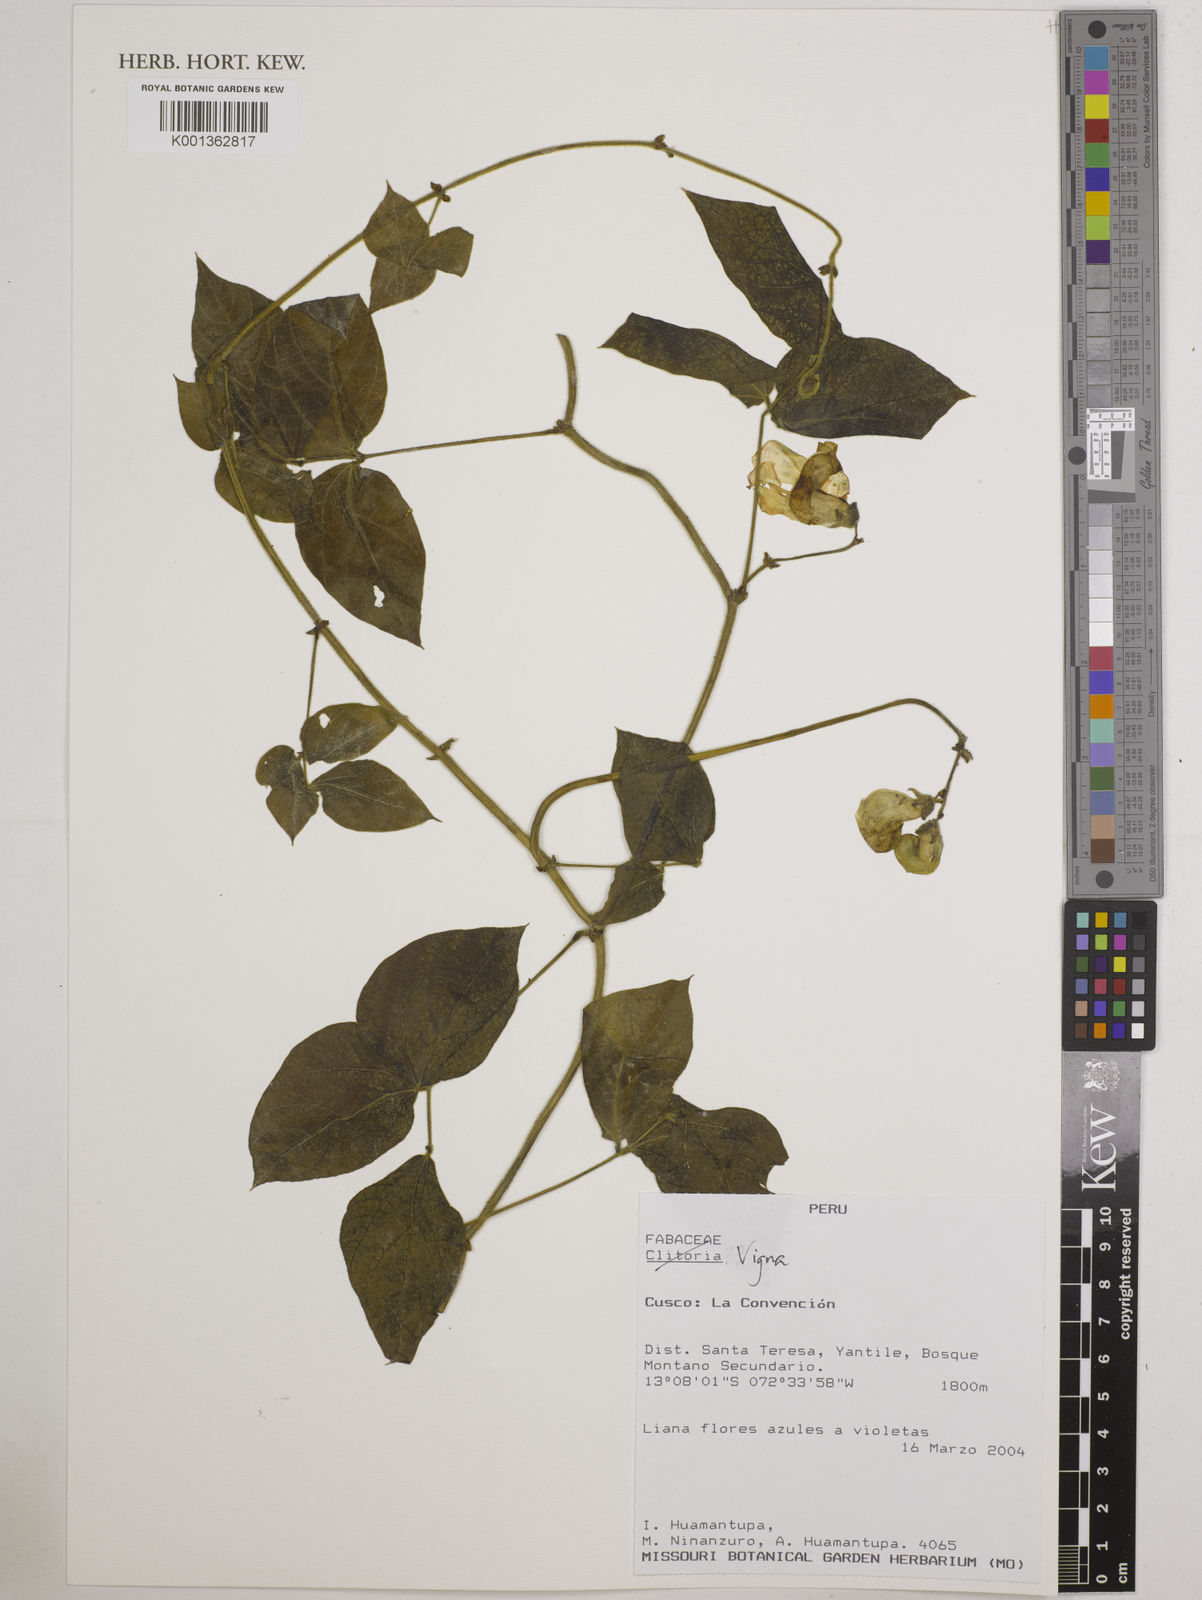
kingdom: Plantae
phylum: Tracheophyta
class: Magnoliopsida
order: Fabales
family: Fabaceae
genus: Vigna
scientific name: Vigna
